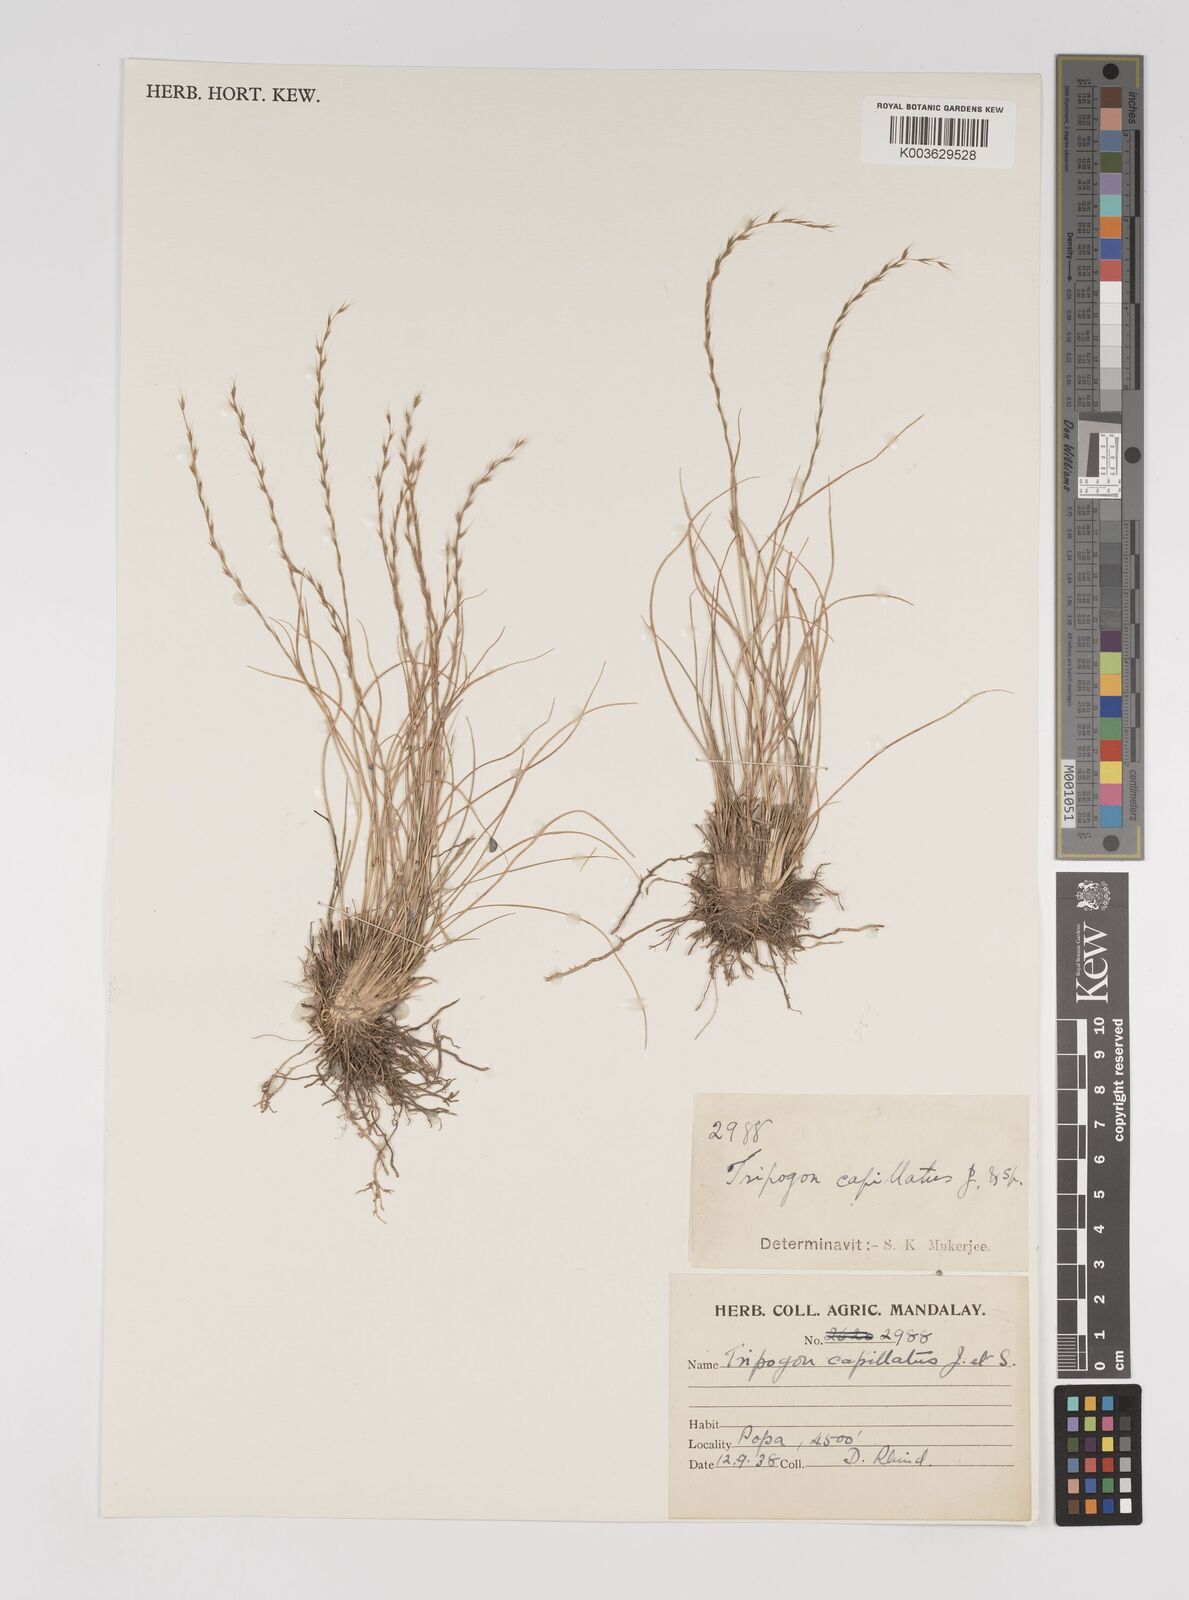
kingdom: Plantae
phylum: Tracheophyta
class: Liliopsida
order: Poales
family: Poaceae
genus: Tripogon
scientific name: Tripogon capillatus
